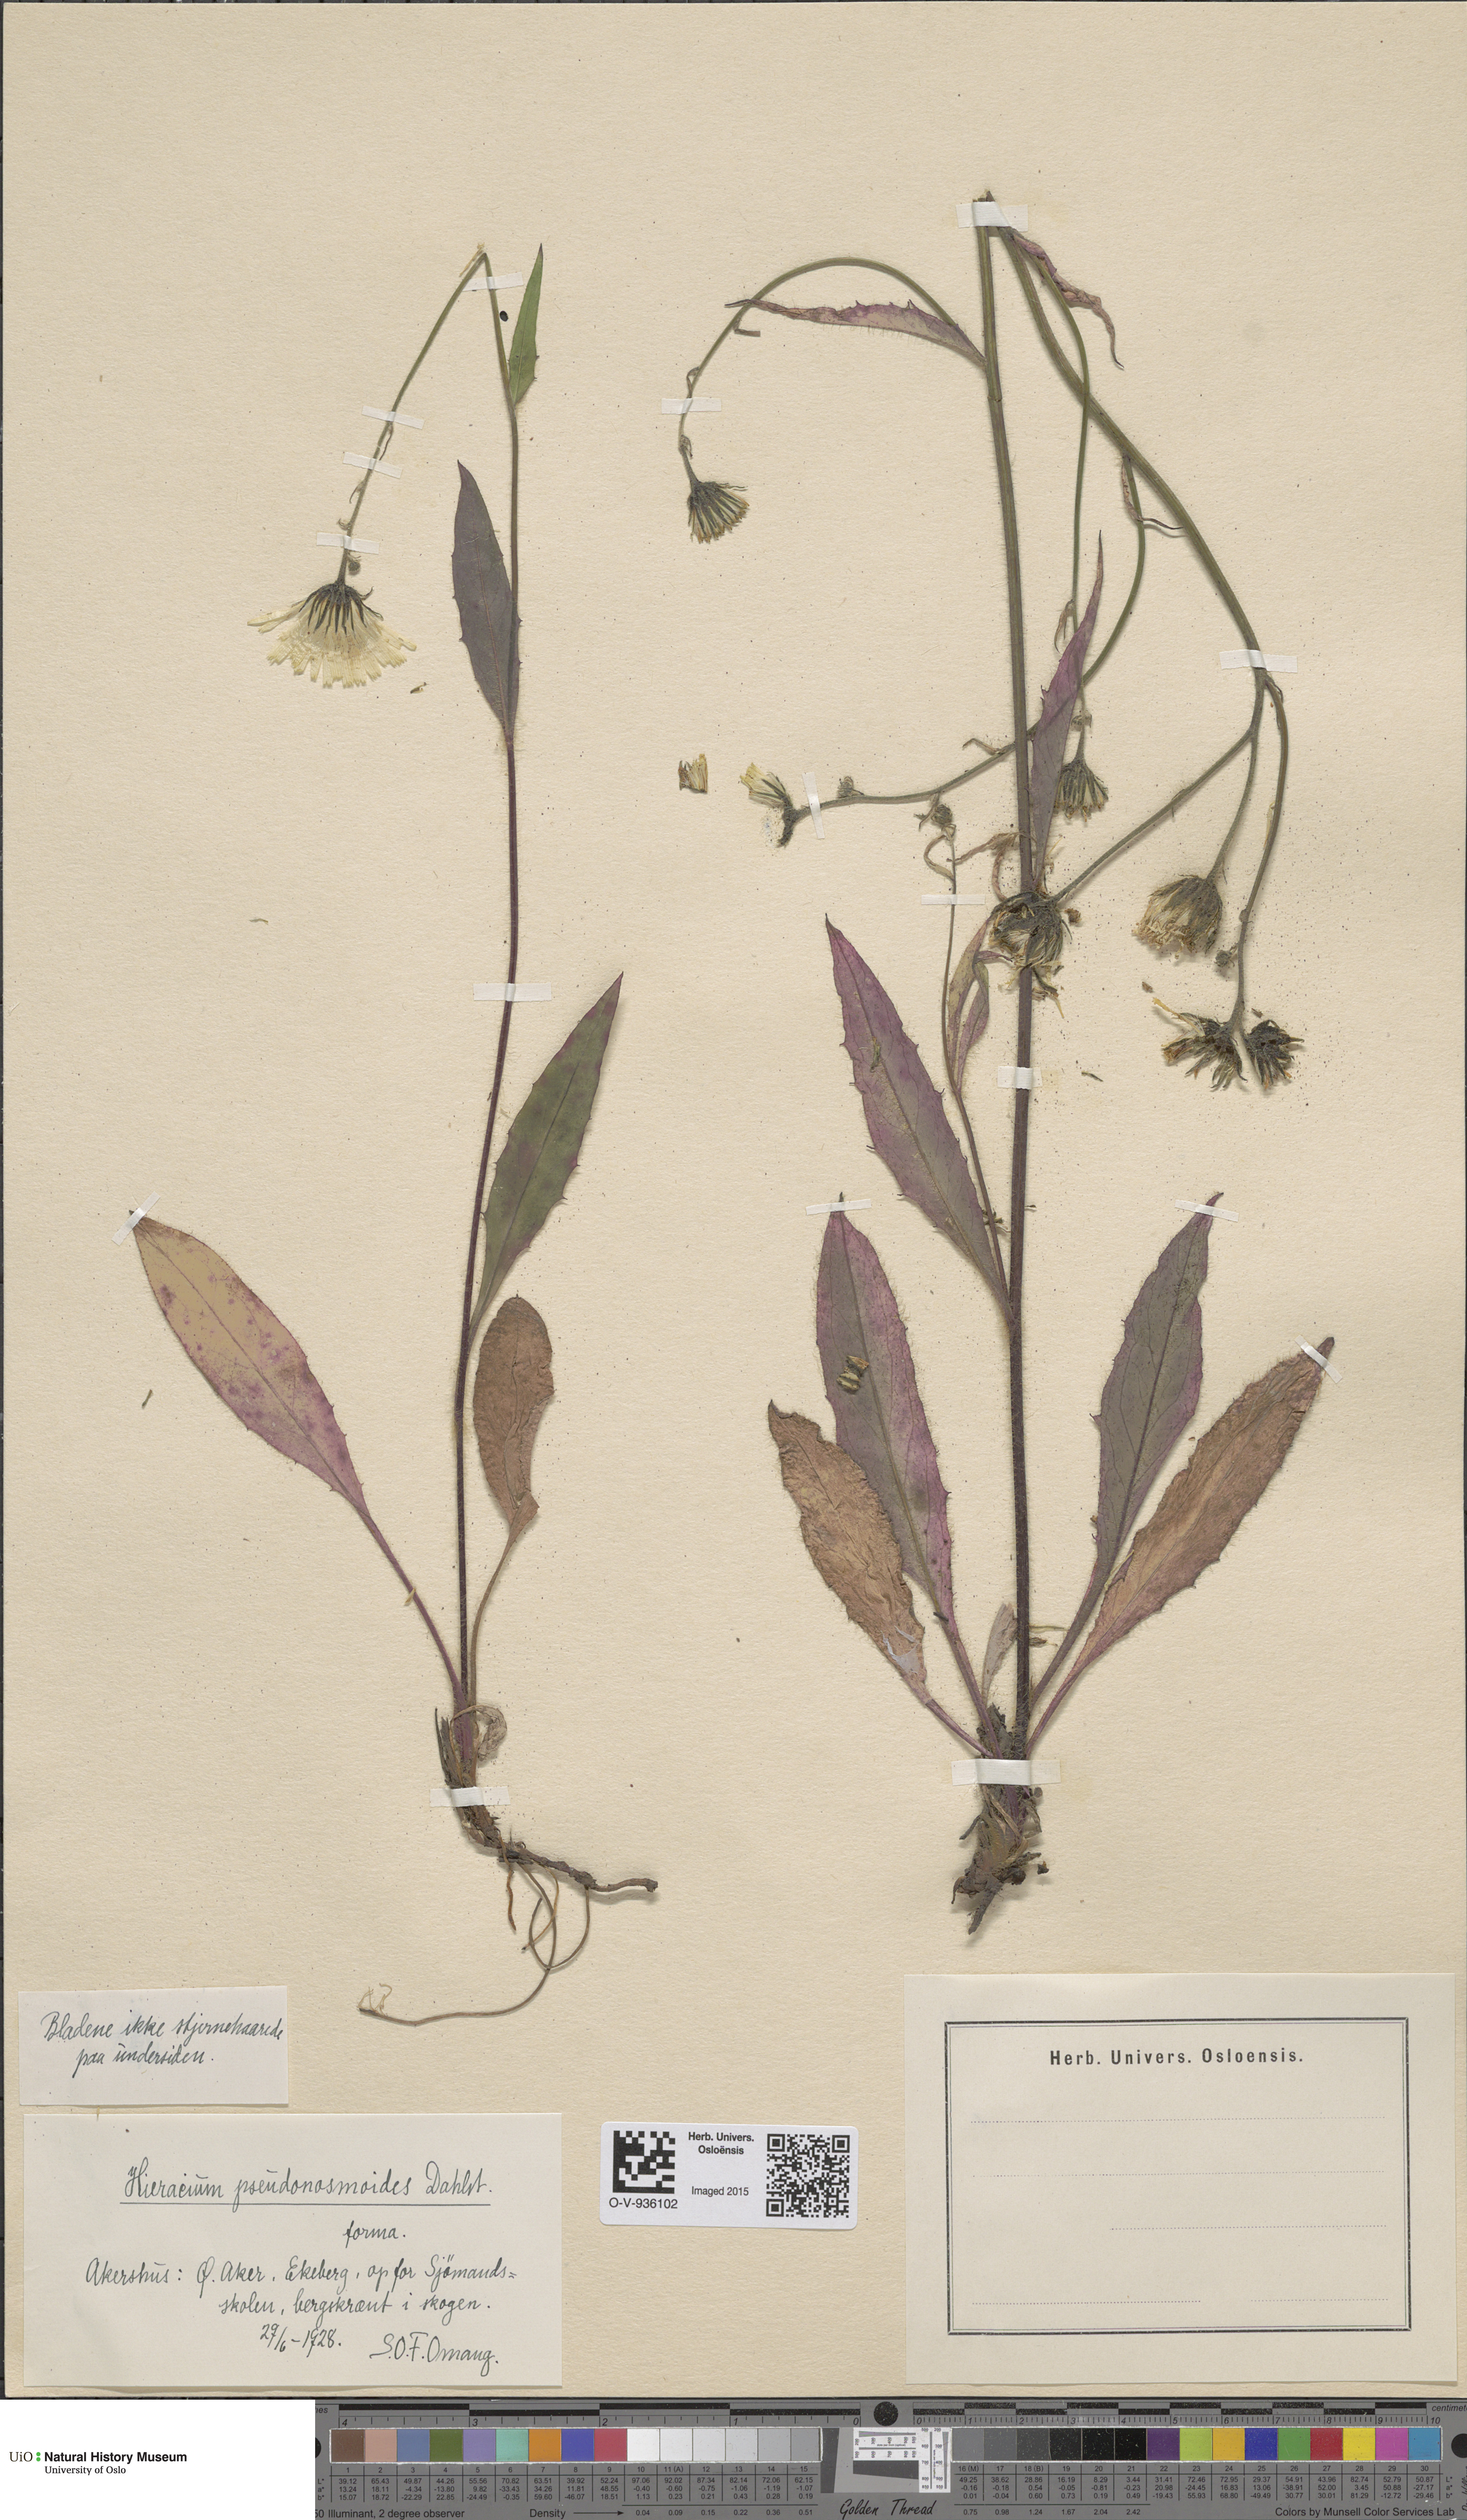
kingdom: Plantae
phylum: Tracheophyta
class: Magnoliopsida
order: Asterales
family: Asteraceae
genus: Hieracium
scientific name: Hieracium saxifragum
